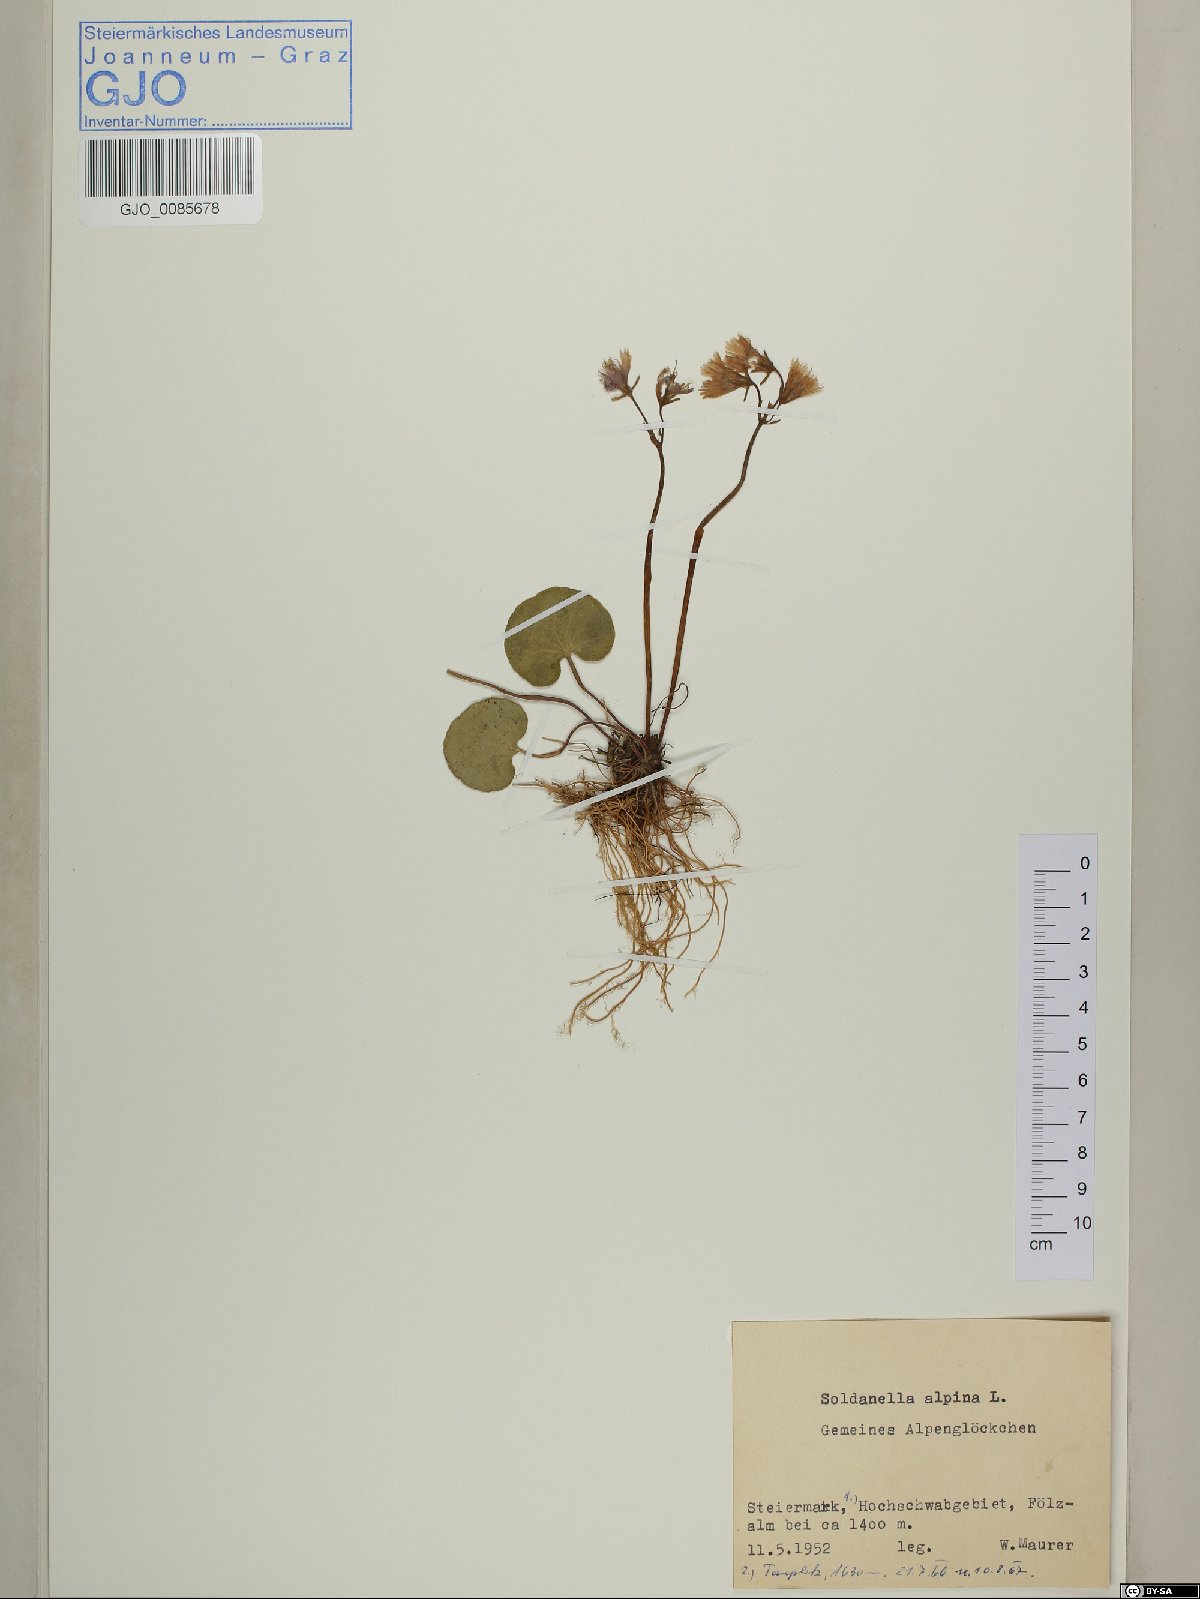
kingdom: Plantae
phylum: Tracheophyta
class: Magnoliopsida
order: Ericales
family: Primulaceae
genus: Soldanella
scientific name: Soldanella alpina
